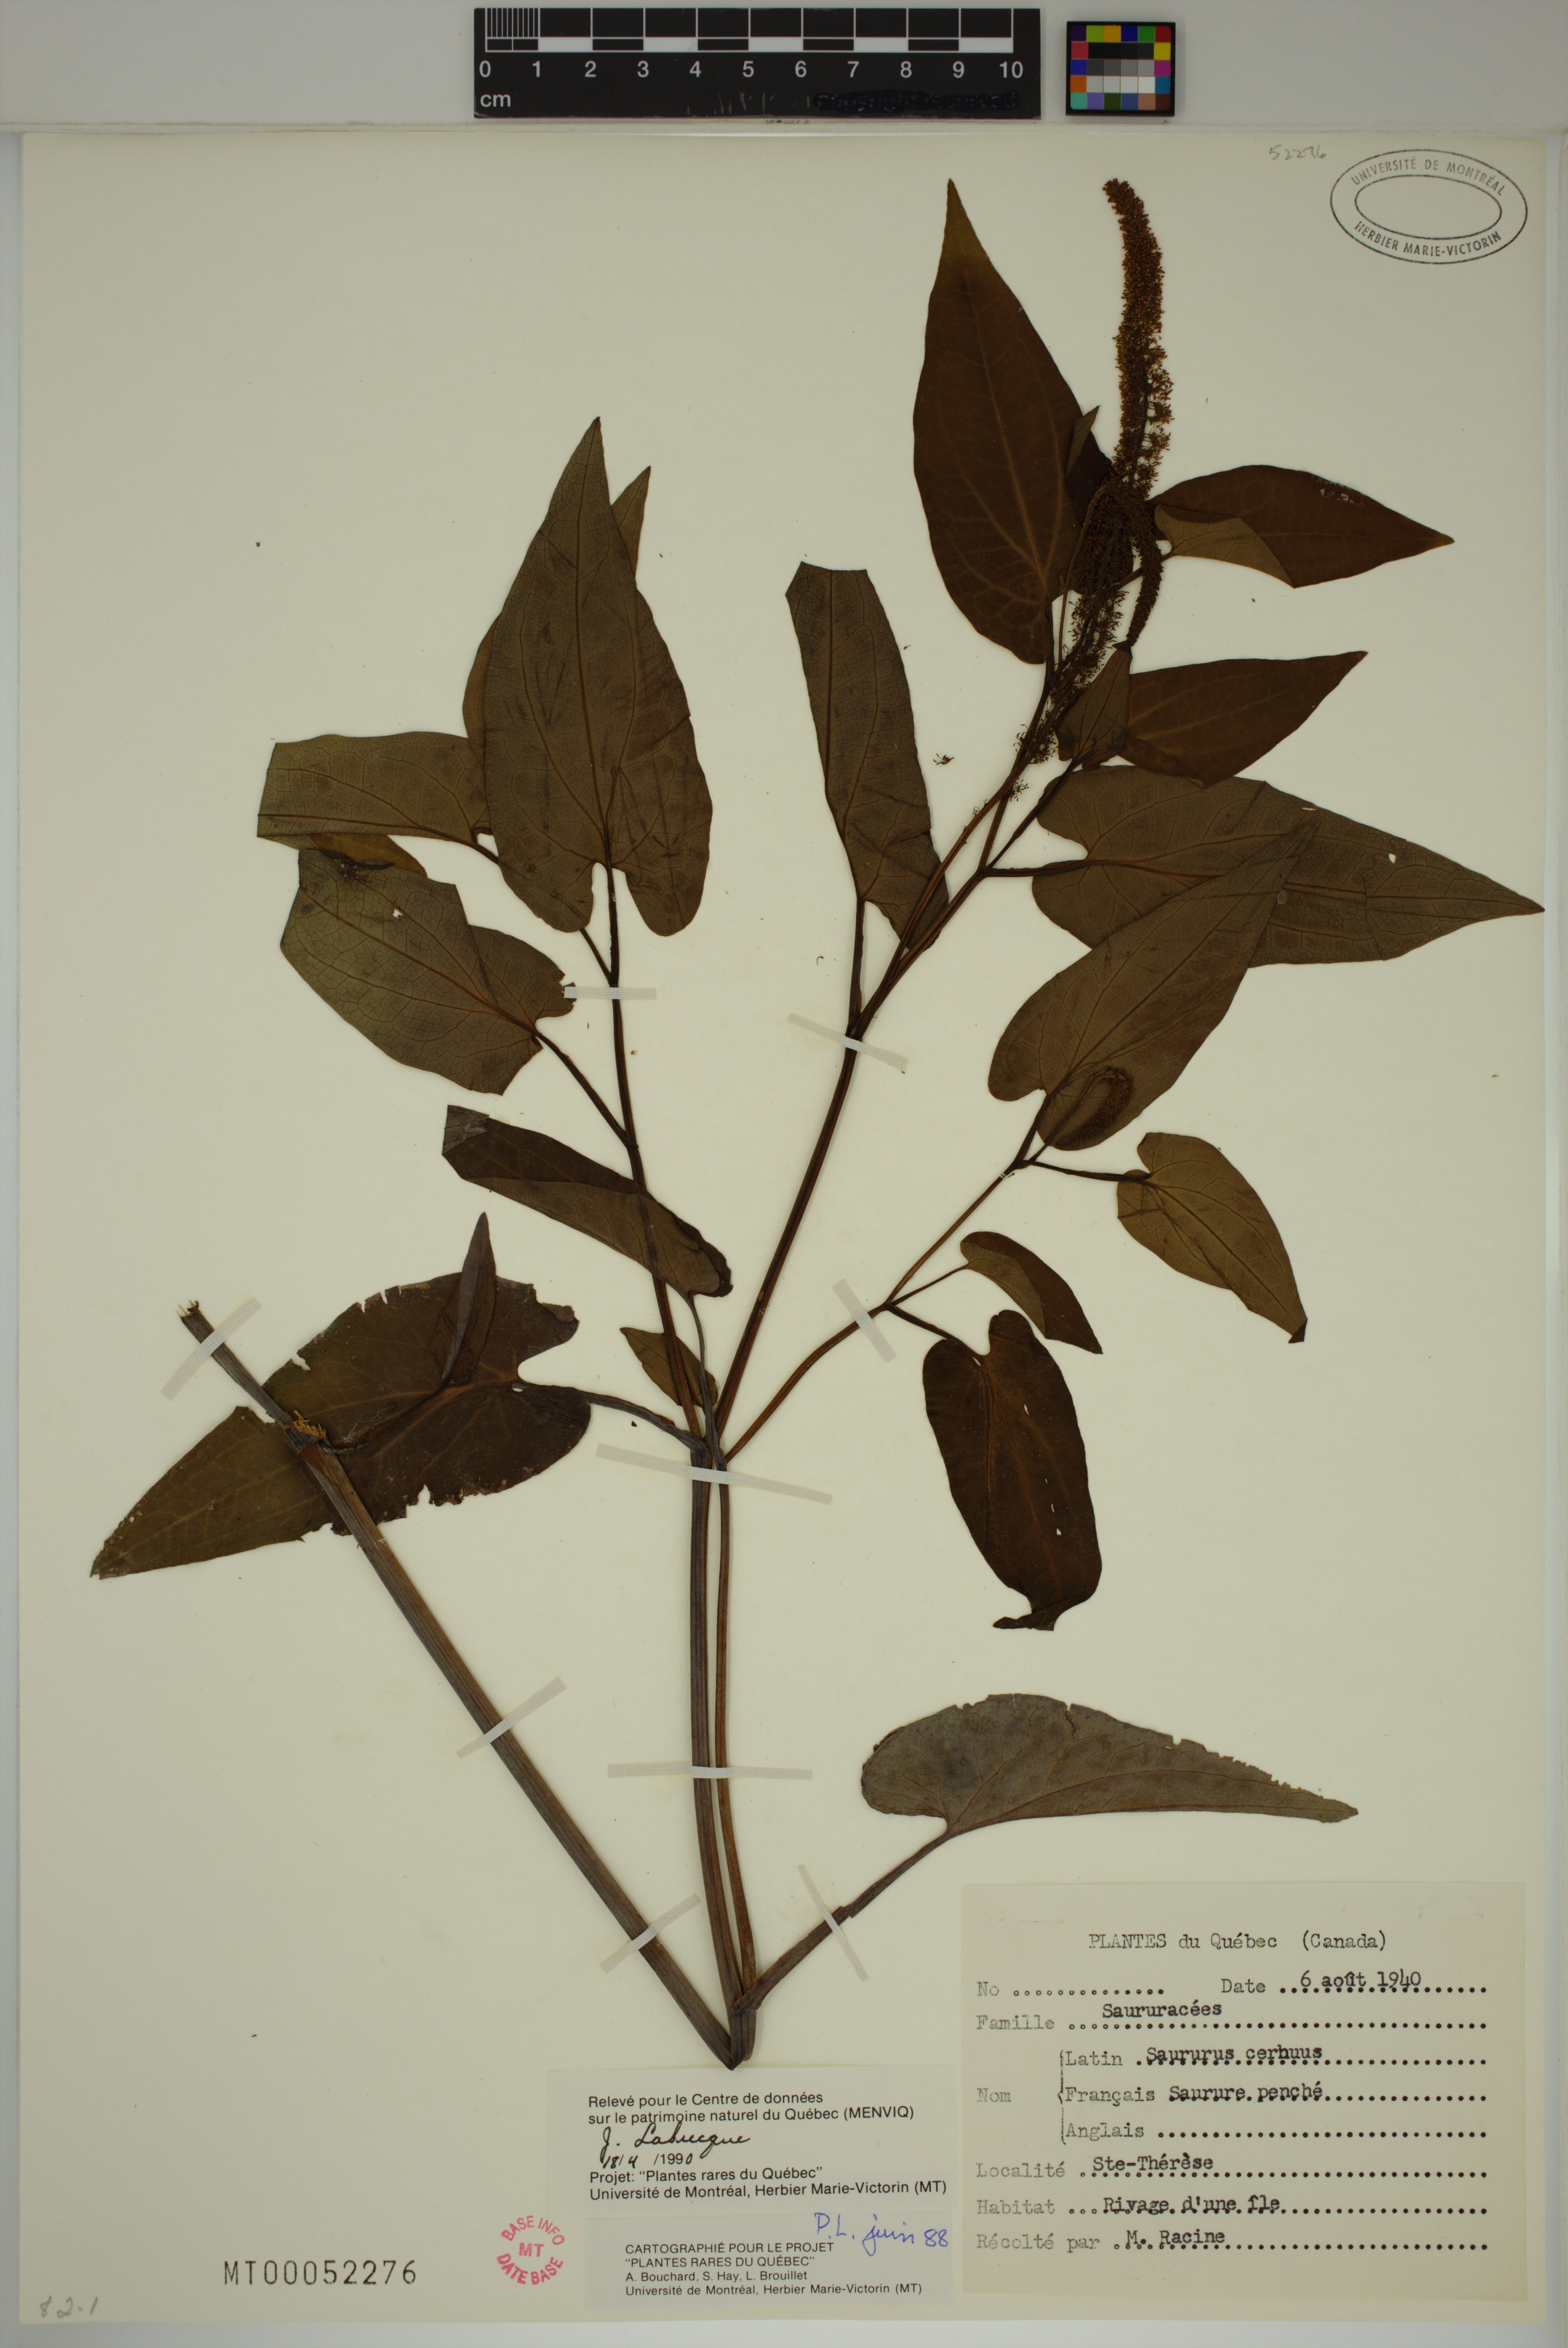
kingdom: Plantae
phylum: Tracheophyta
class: Magnoliopsida
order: Piperales
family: Saururaceae
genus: Saururus
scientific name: Saururus cernuus
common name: Lizard's-tail
